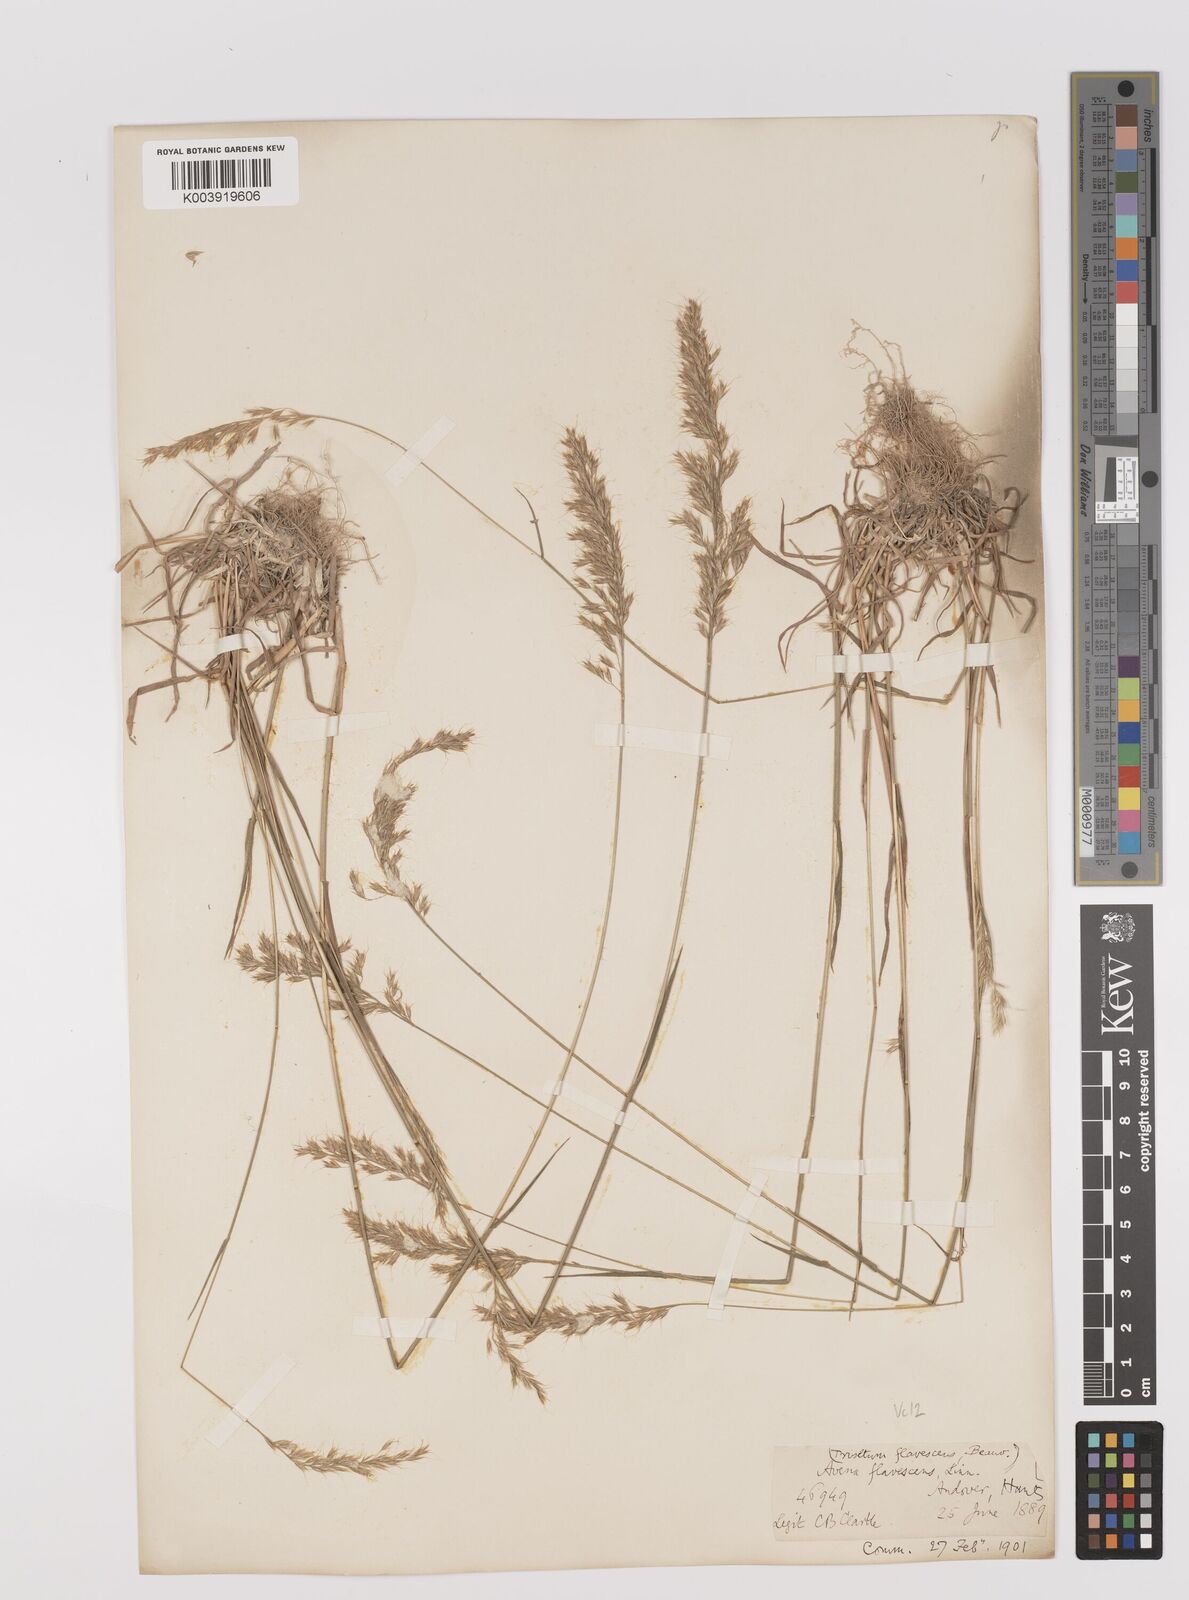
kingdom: Plantae
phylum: Tracheophyta
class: Liliopsida
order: Poales
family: Poaceae
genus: Trisetum
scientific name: Trisetum flavescens
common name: Yellow oat-grass
